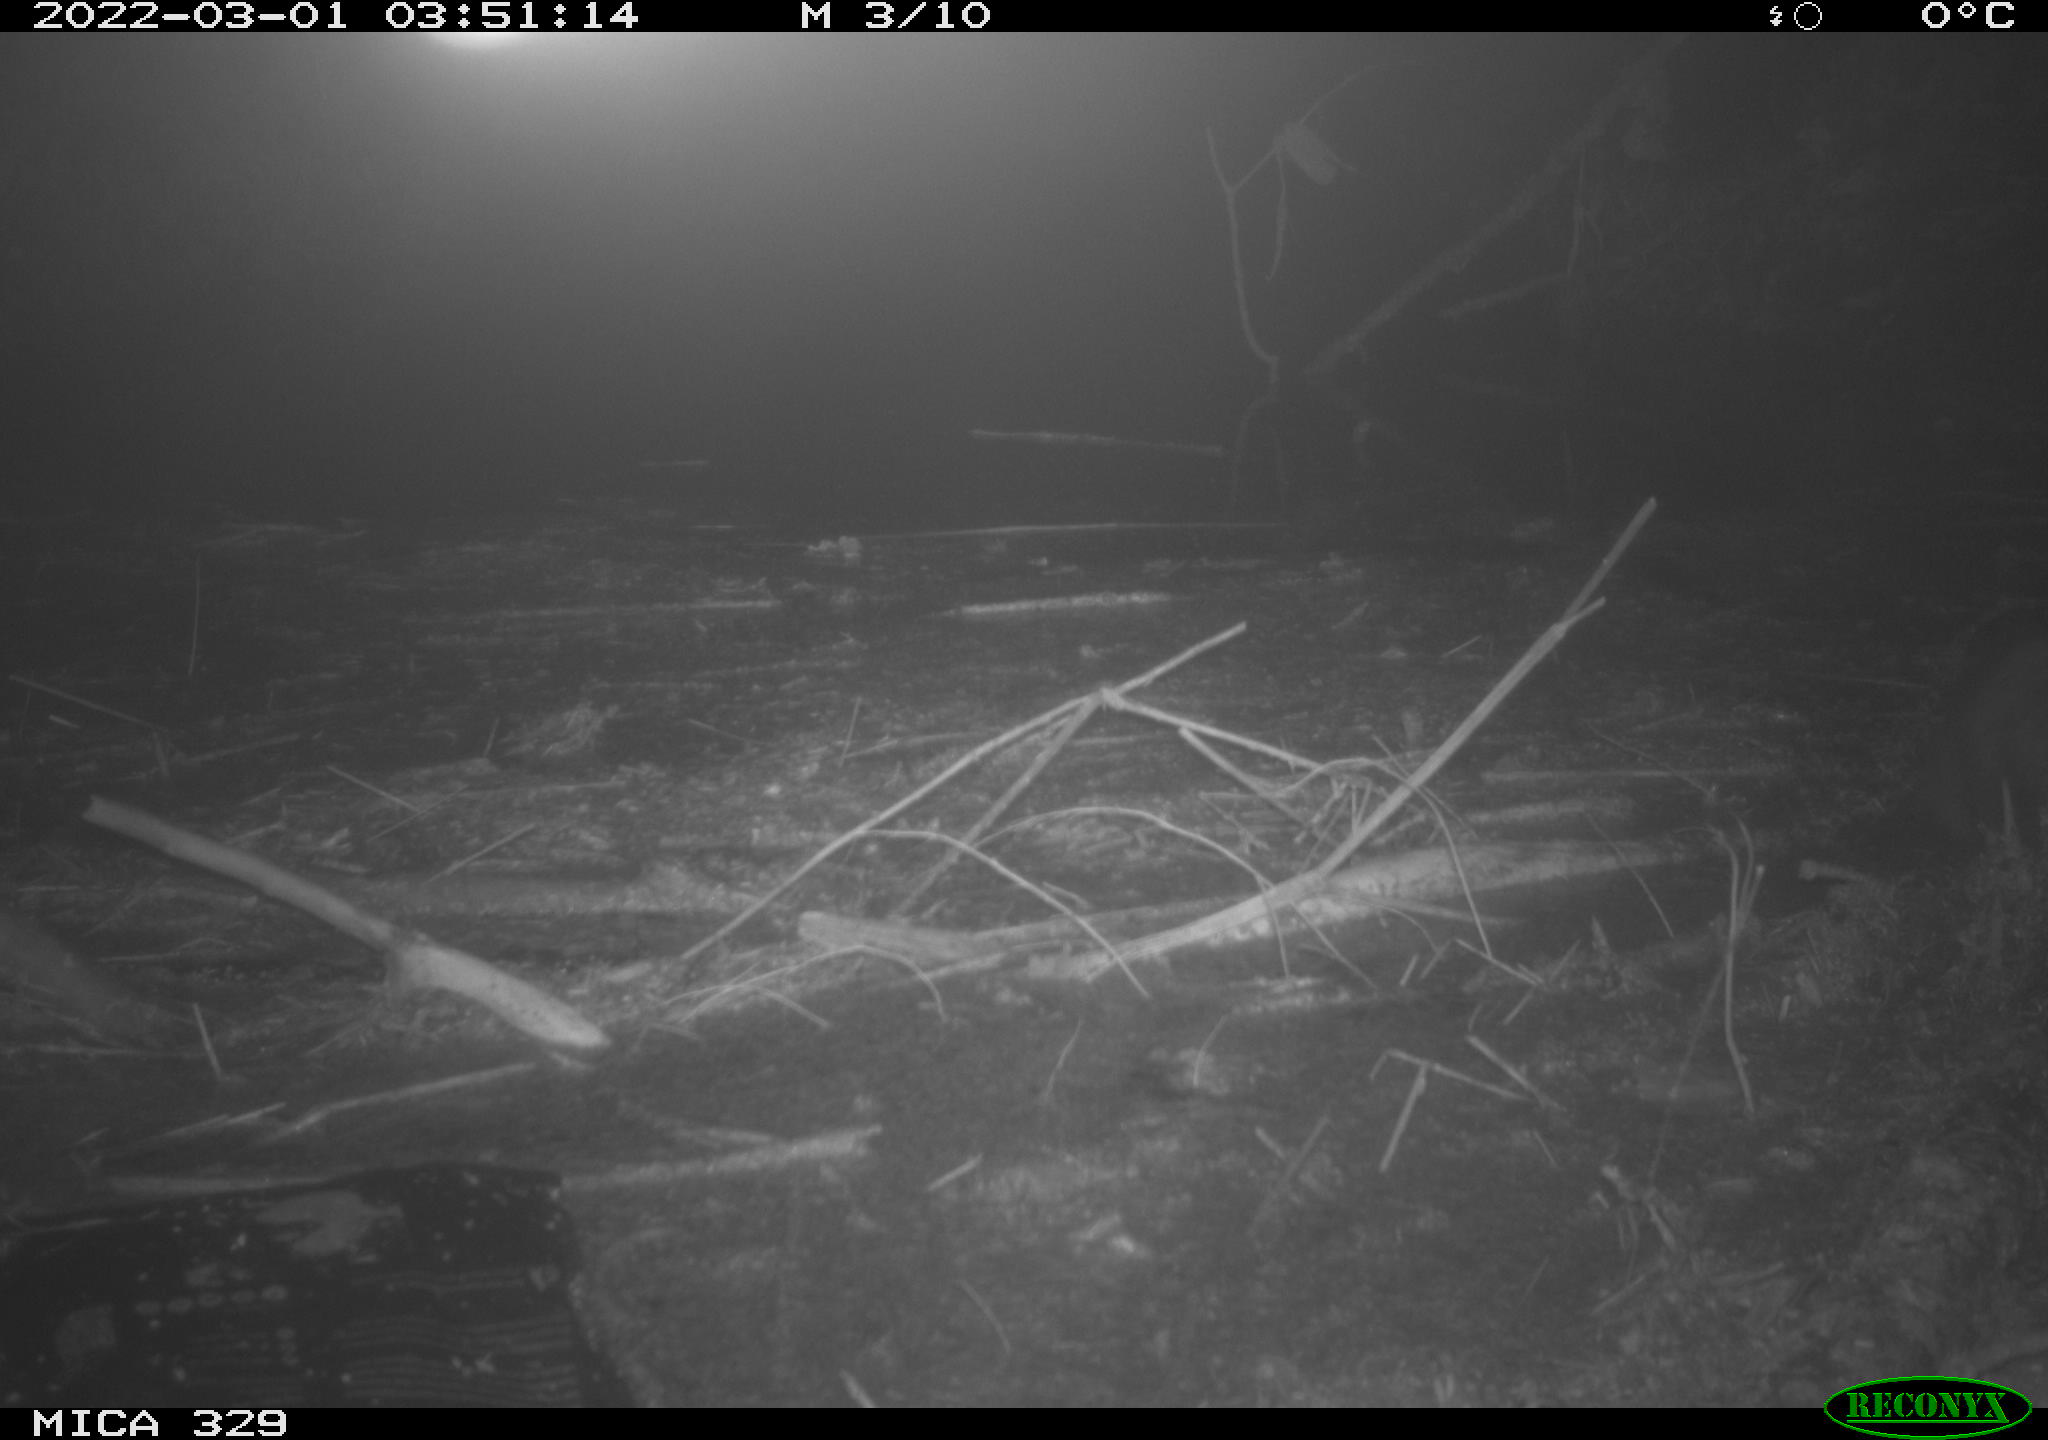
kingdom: Animalia
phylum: Chordata
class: Mammalia
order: Rodentia
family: Cricetidae
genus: Ondatra
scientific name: Ondatra zibethicus
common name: Muskrat
